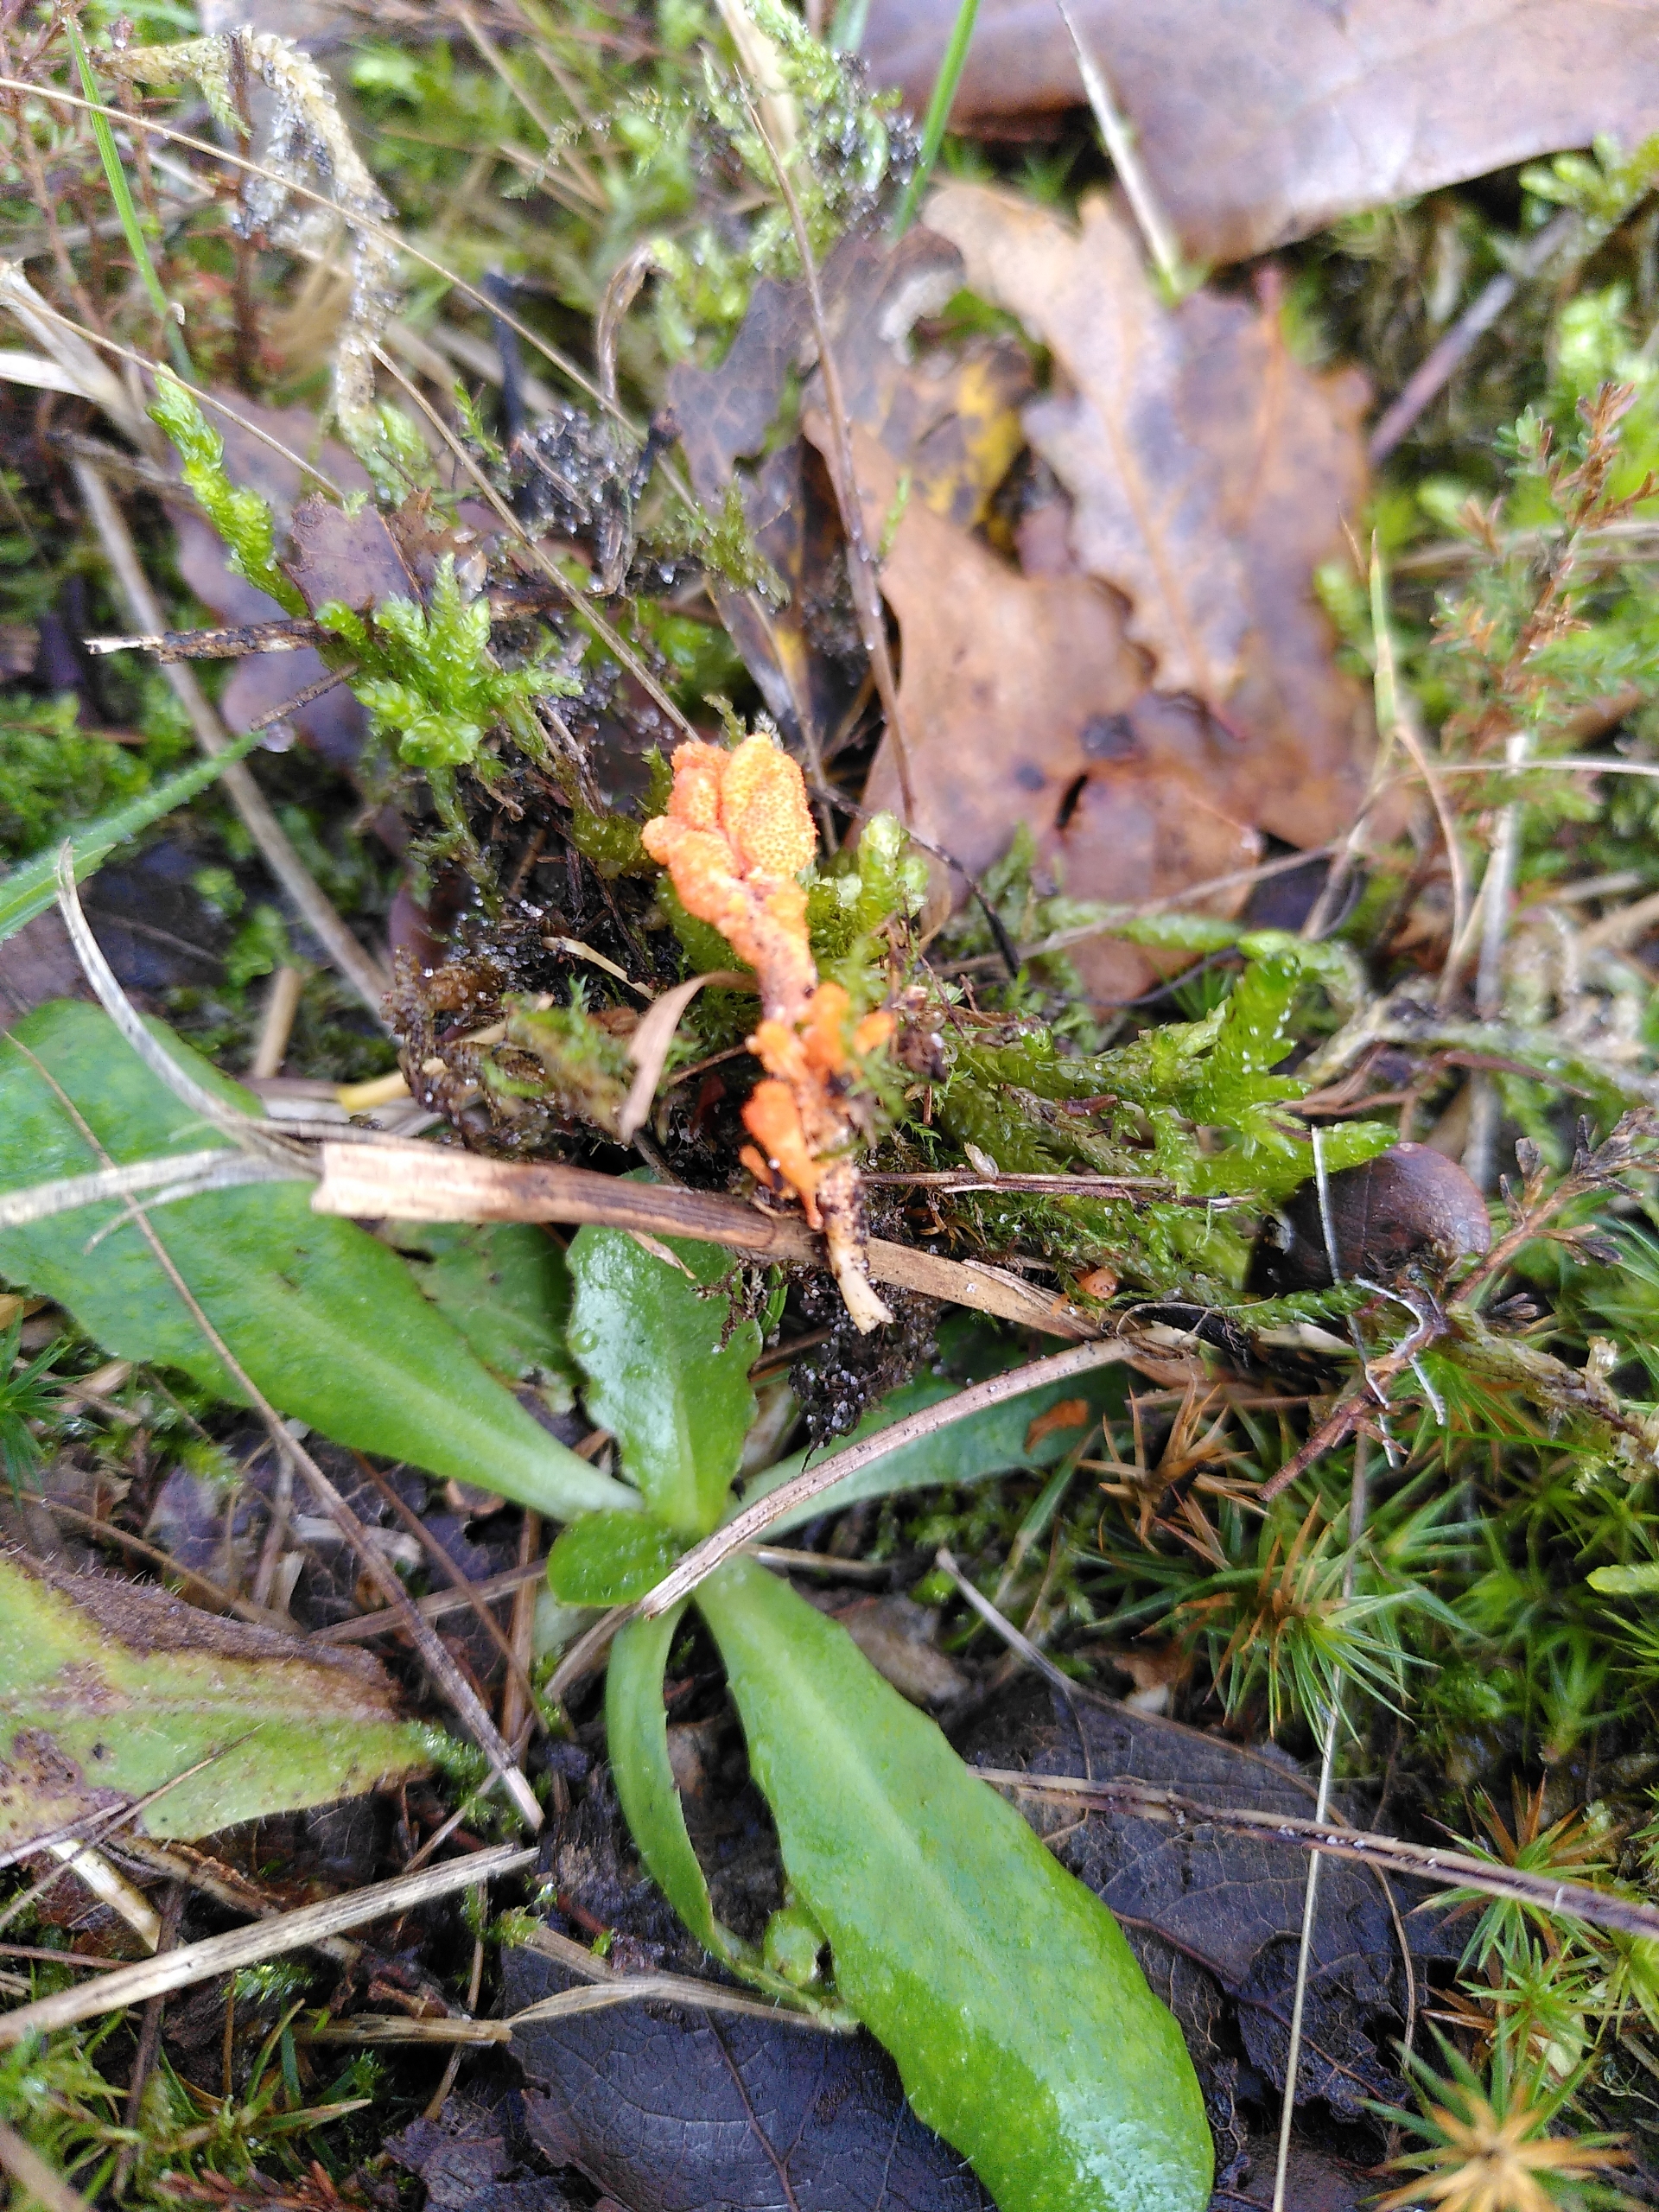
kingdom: Fungi
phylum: Ascomycota
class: Sordariomycetes
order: Hypocreales
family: Cordycipitaceae
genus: Cordyceps
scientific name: Cordyceps militaris
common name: Puppe-snyltekølle
